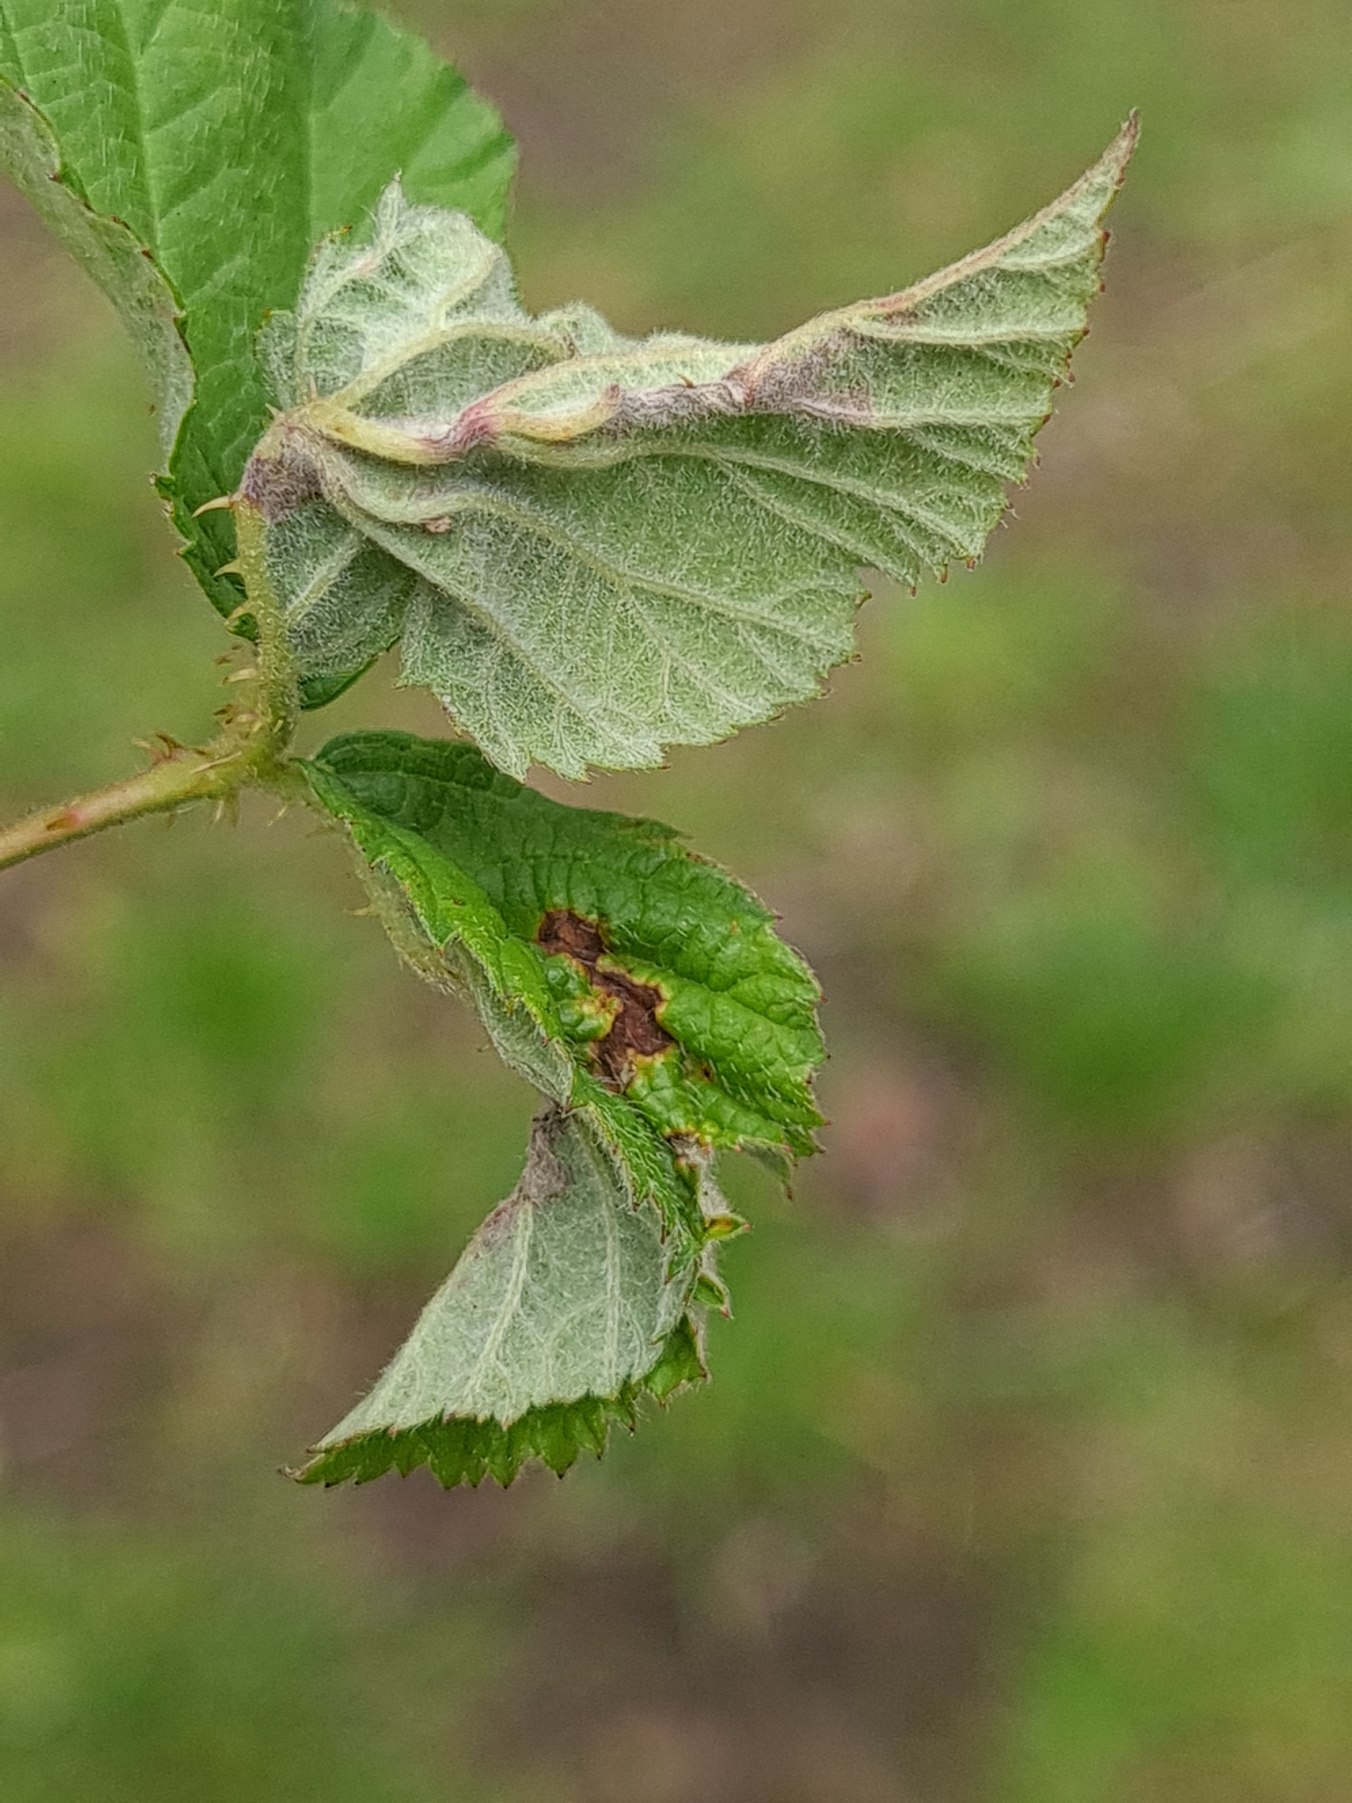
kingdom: Animalia
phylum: Arthropoda
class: Insecta
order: Diptera
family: Cecidomyiidae
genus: Dasineura
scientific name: Dasineura plicatrix
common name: Brombærbladgalmyg
